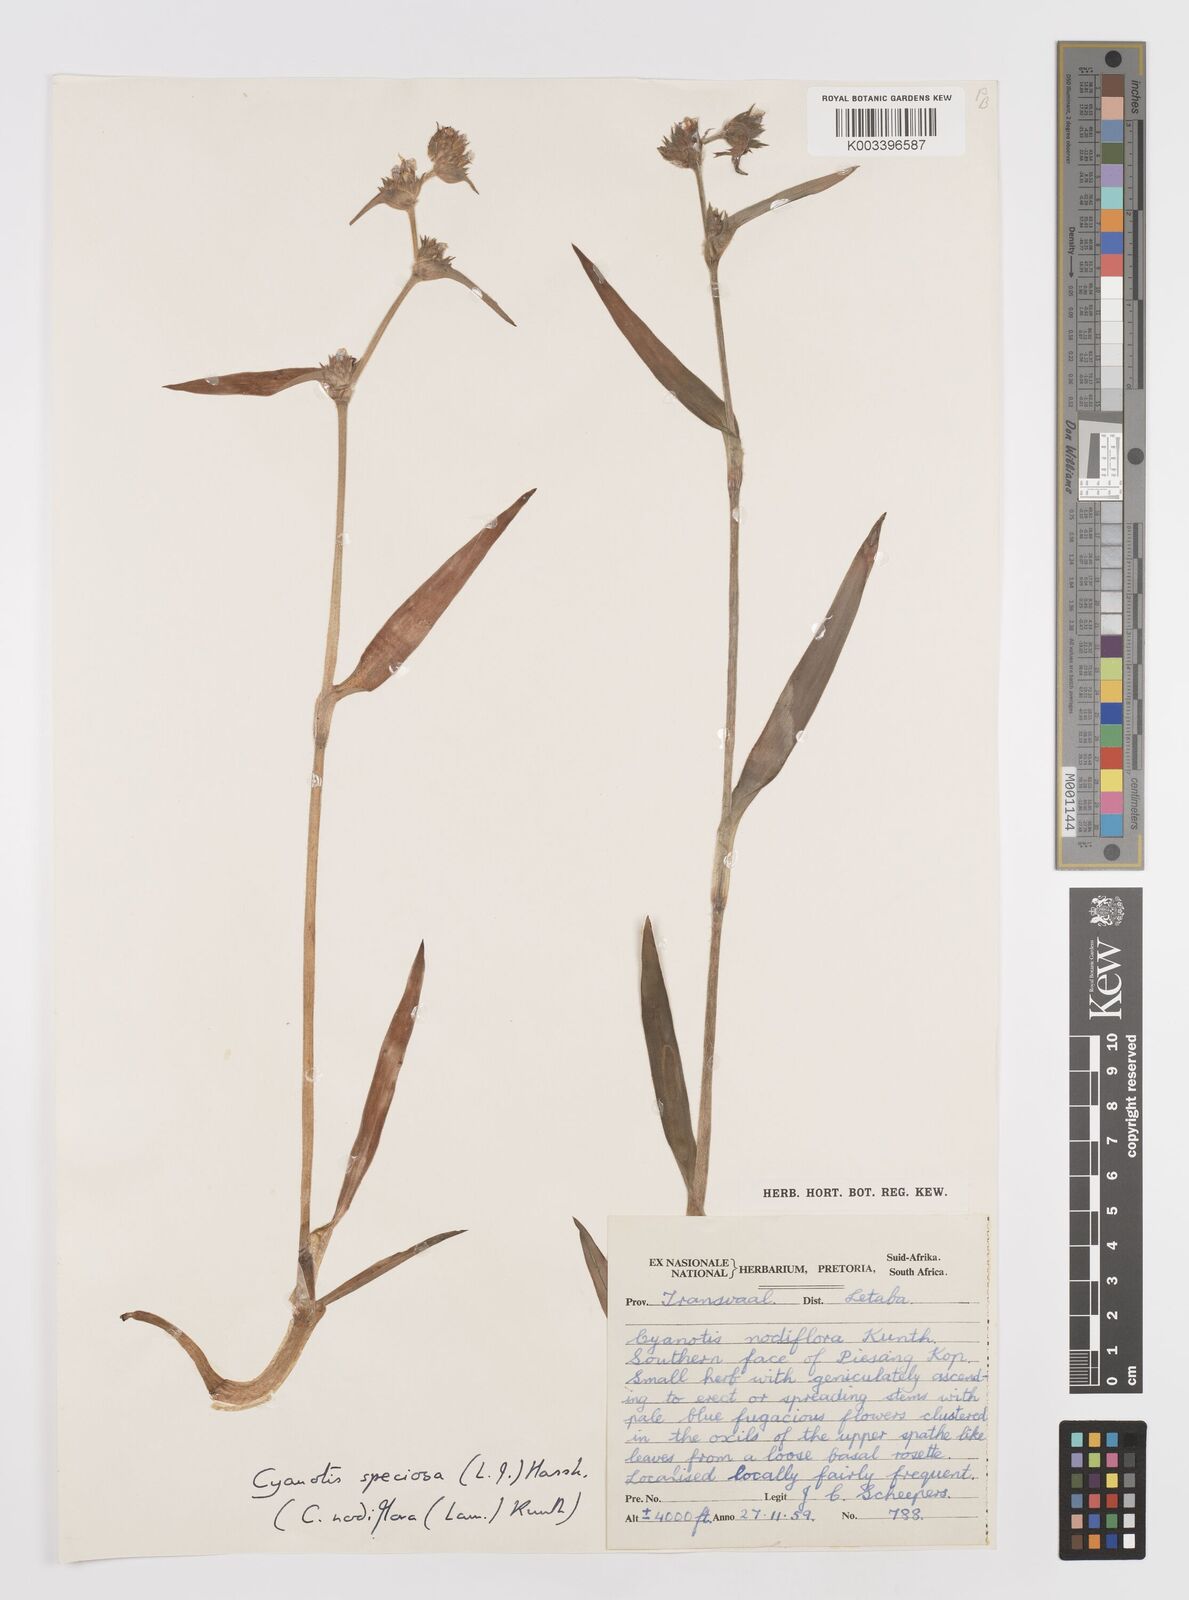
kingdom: Plantae
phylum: Tracheophyta
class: Liliopsida
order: Commelinales
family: Commelinaceae
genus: Cyanotis
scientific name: Cyanotis speciosa
